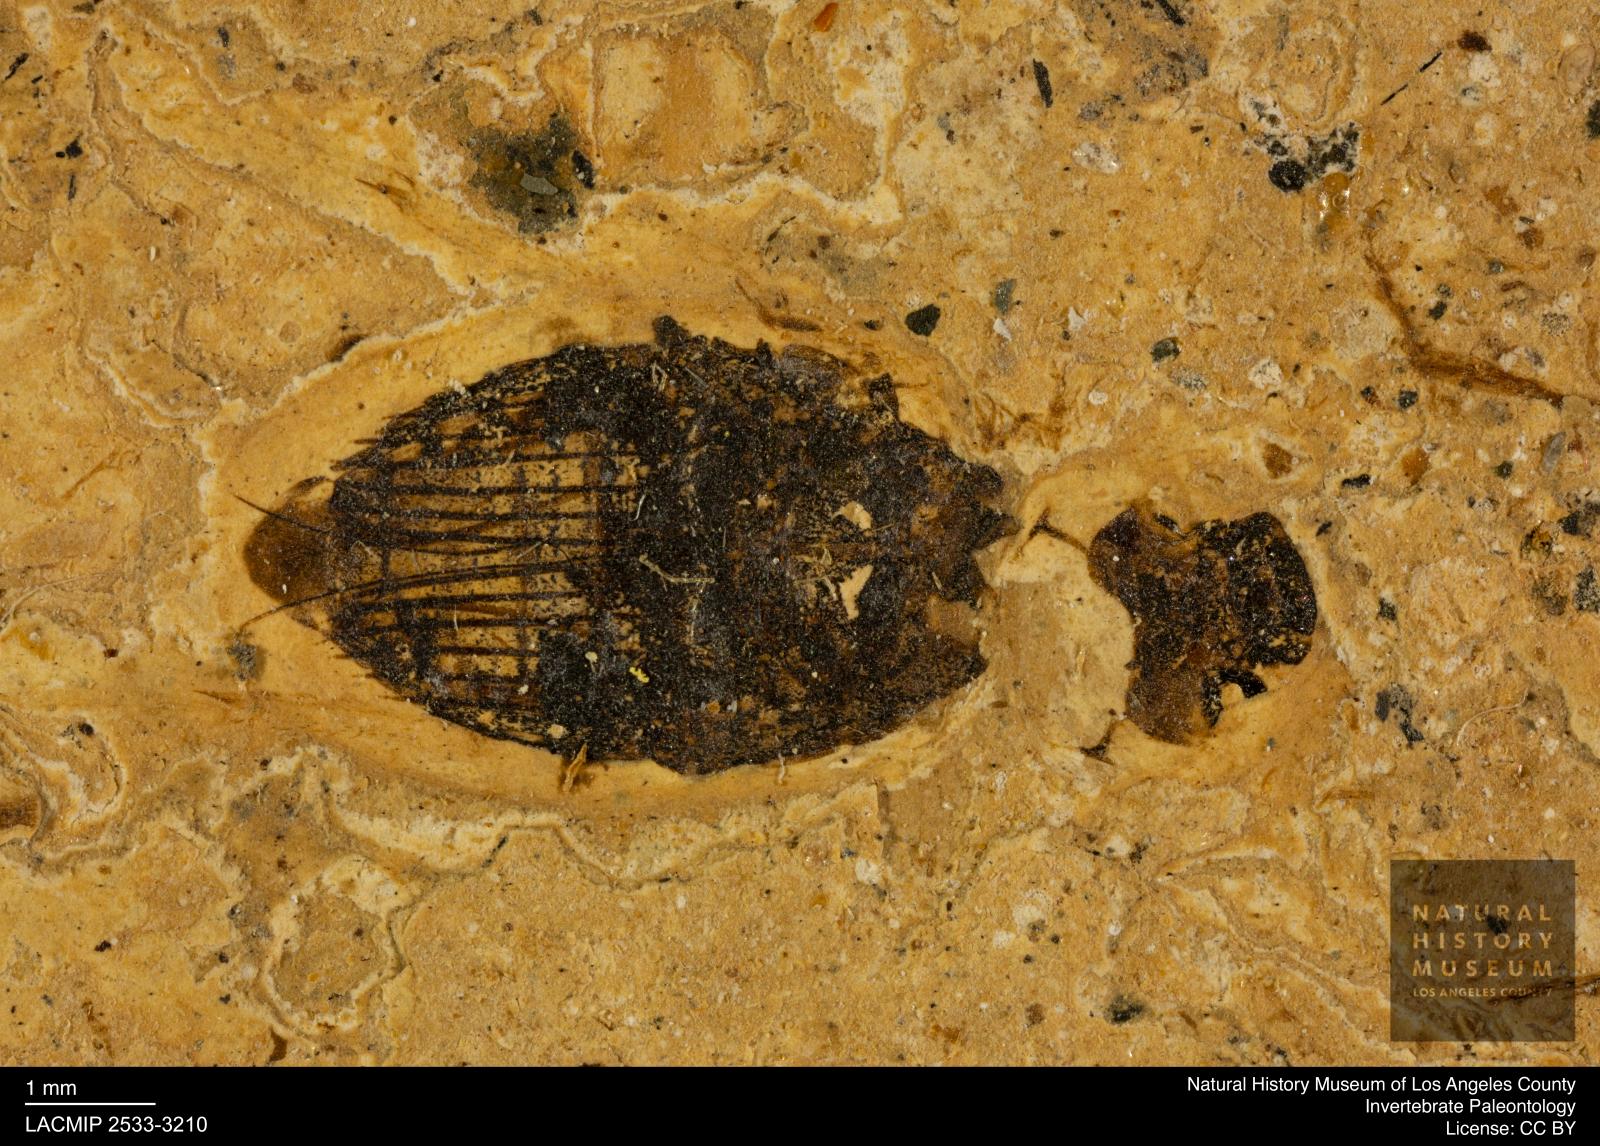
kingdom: Animalia
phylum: Arthropoda
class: Insecta
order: Coleoptera
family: Hydrophilidae
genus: Berosus
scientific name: Berosus morticinus
